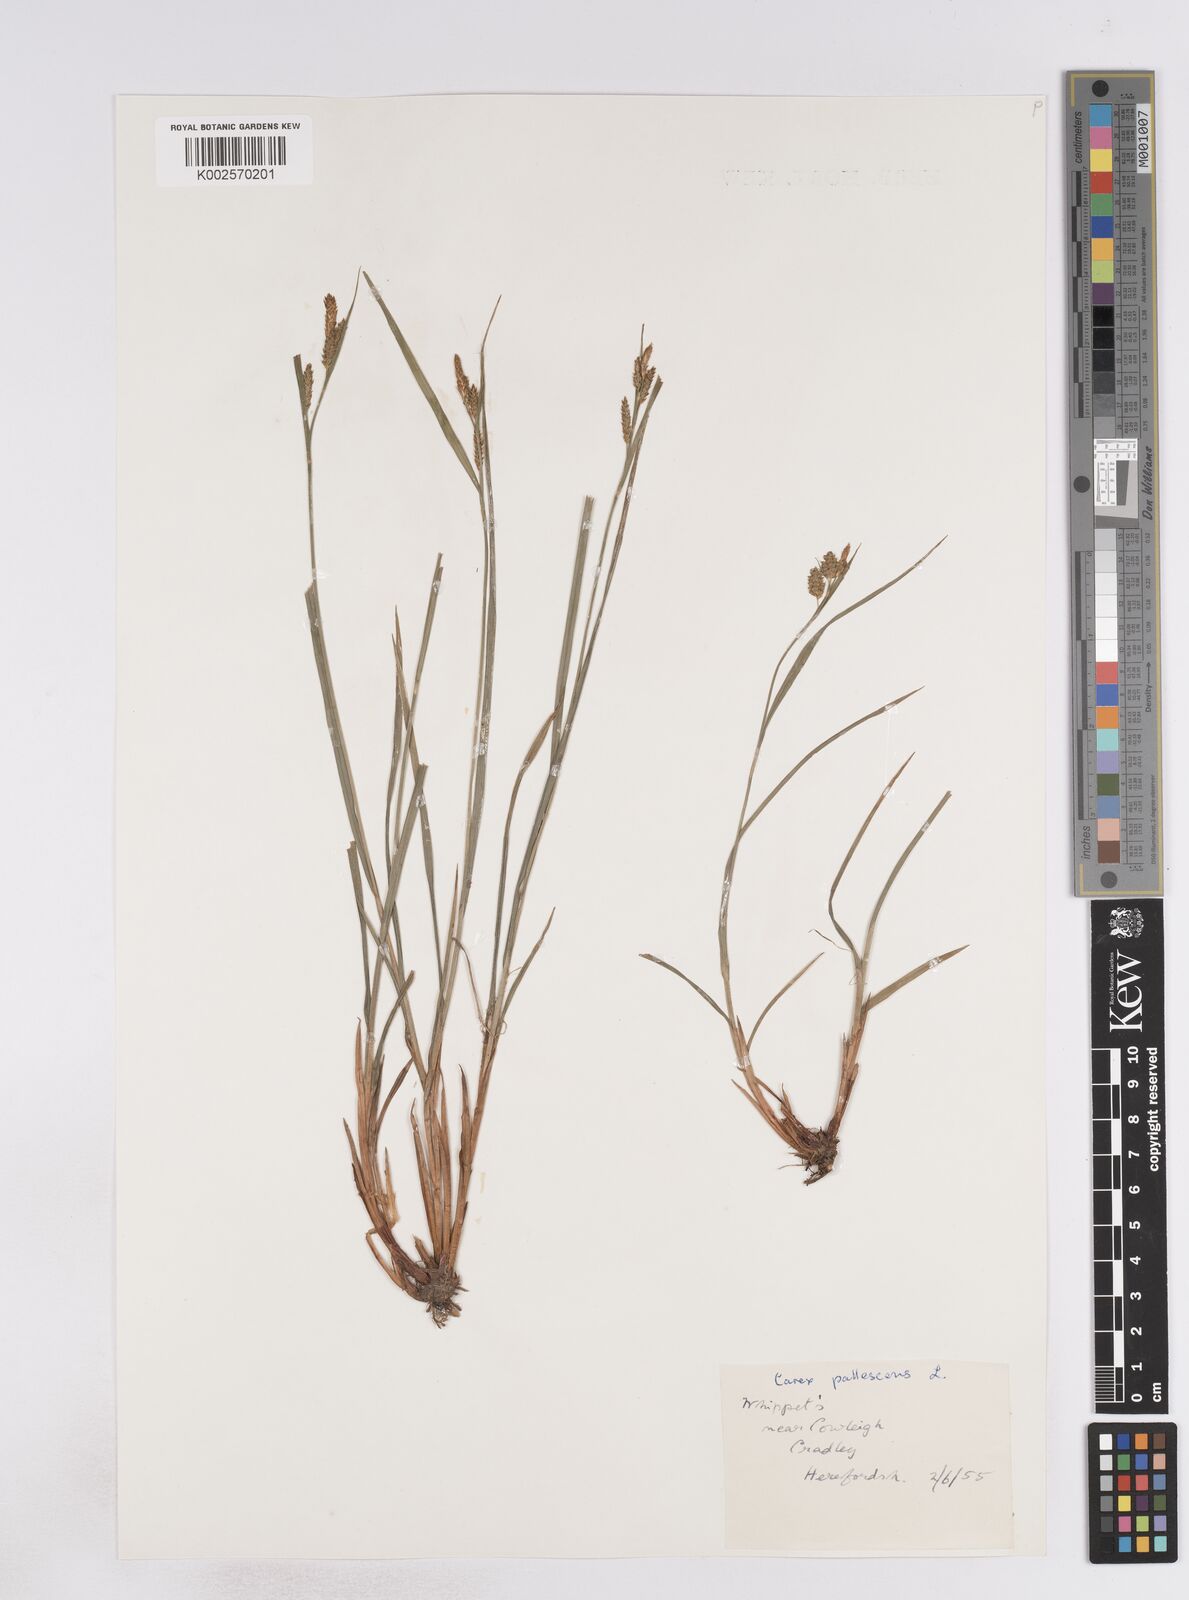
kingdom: Plantae
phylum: Tracheophyta
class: Liliopsida
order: Poales
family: Cyperaceae
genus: Carex
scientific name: Carex pallescens
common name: Pale sedge
